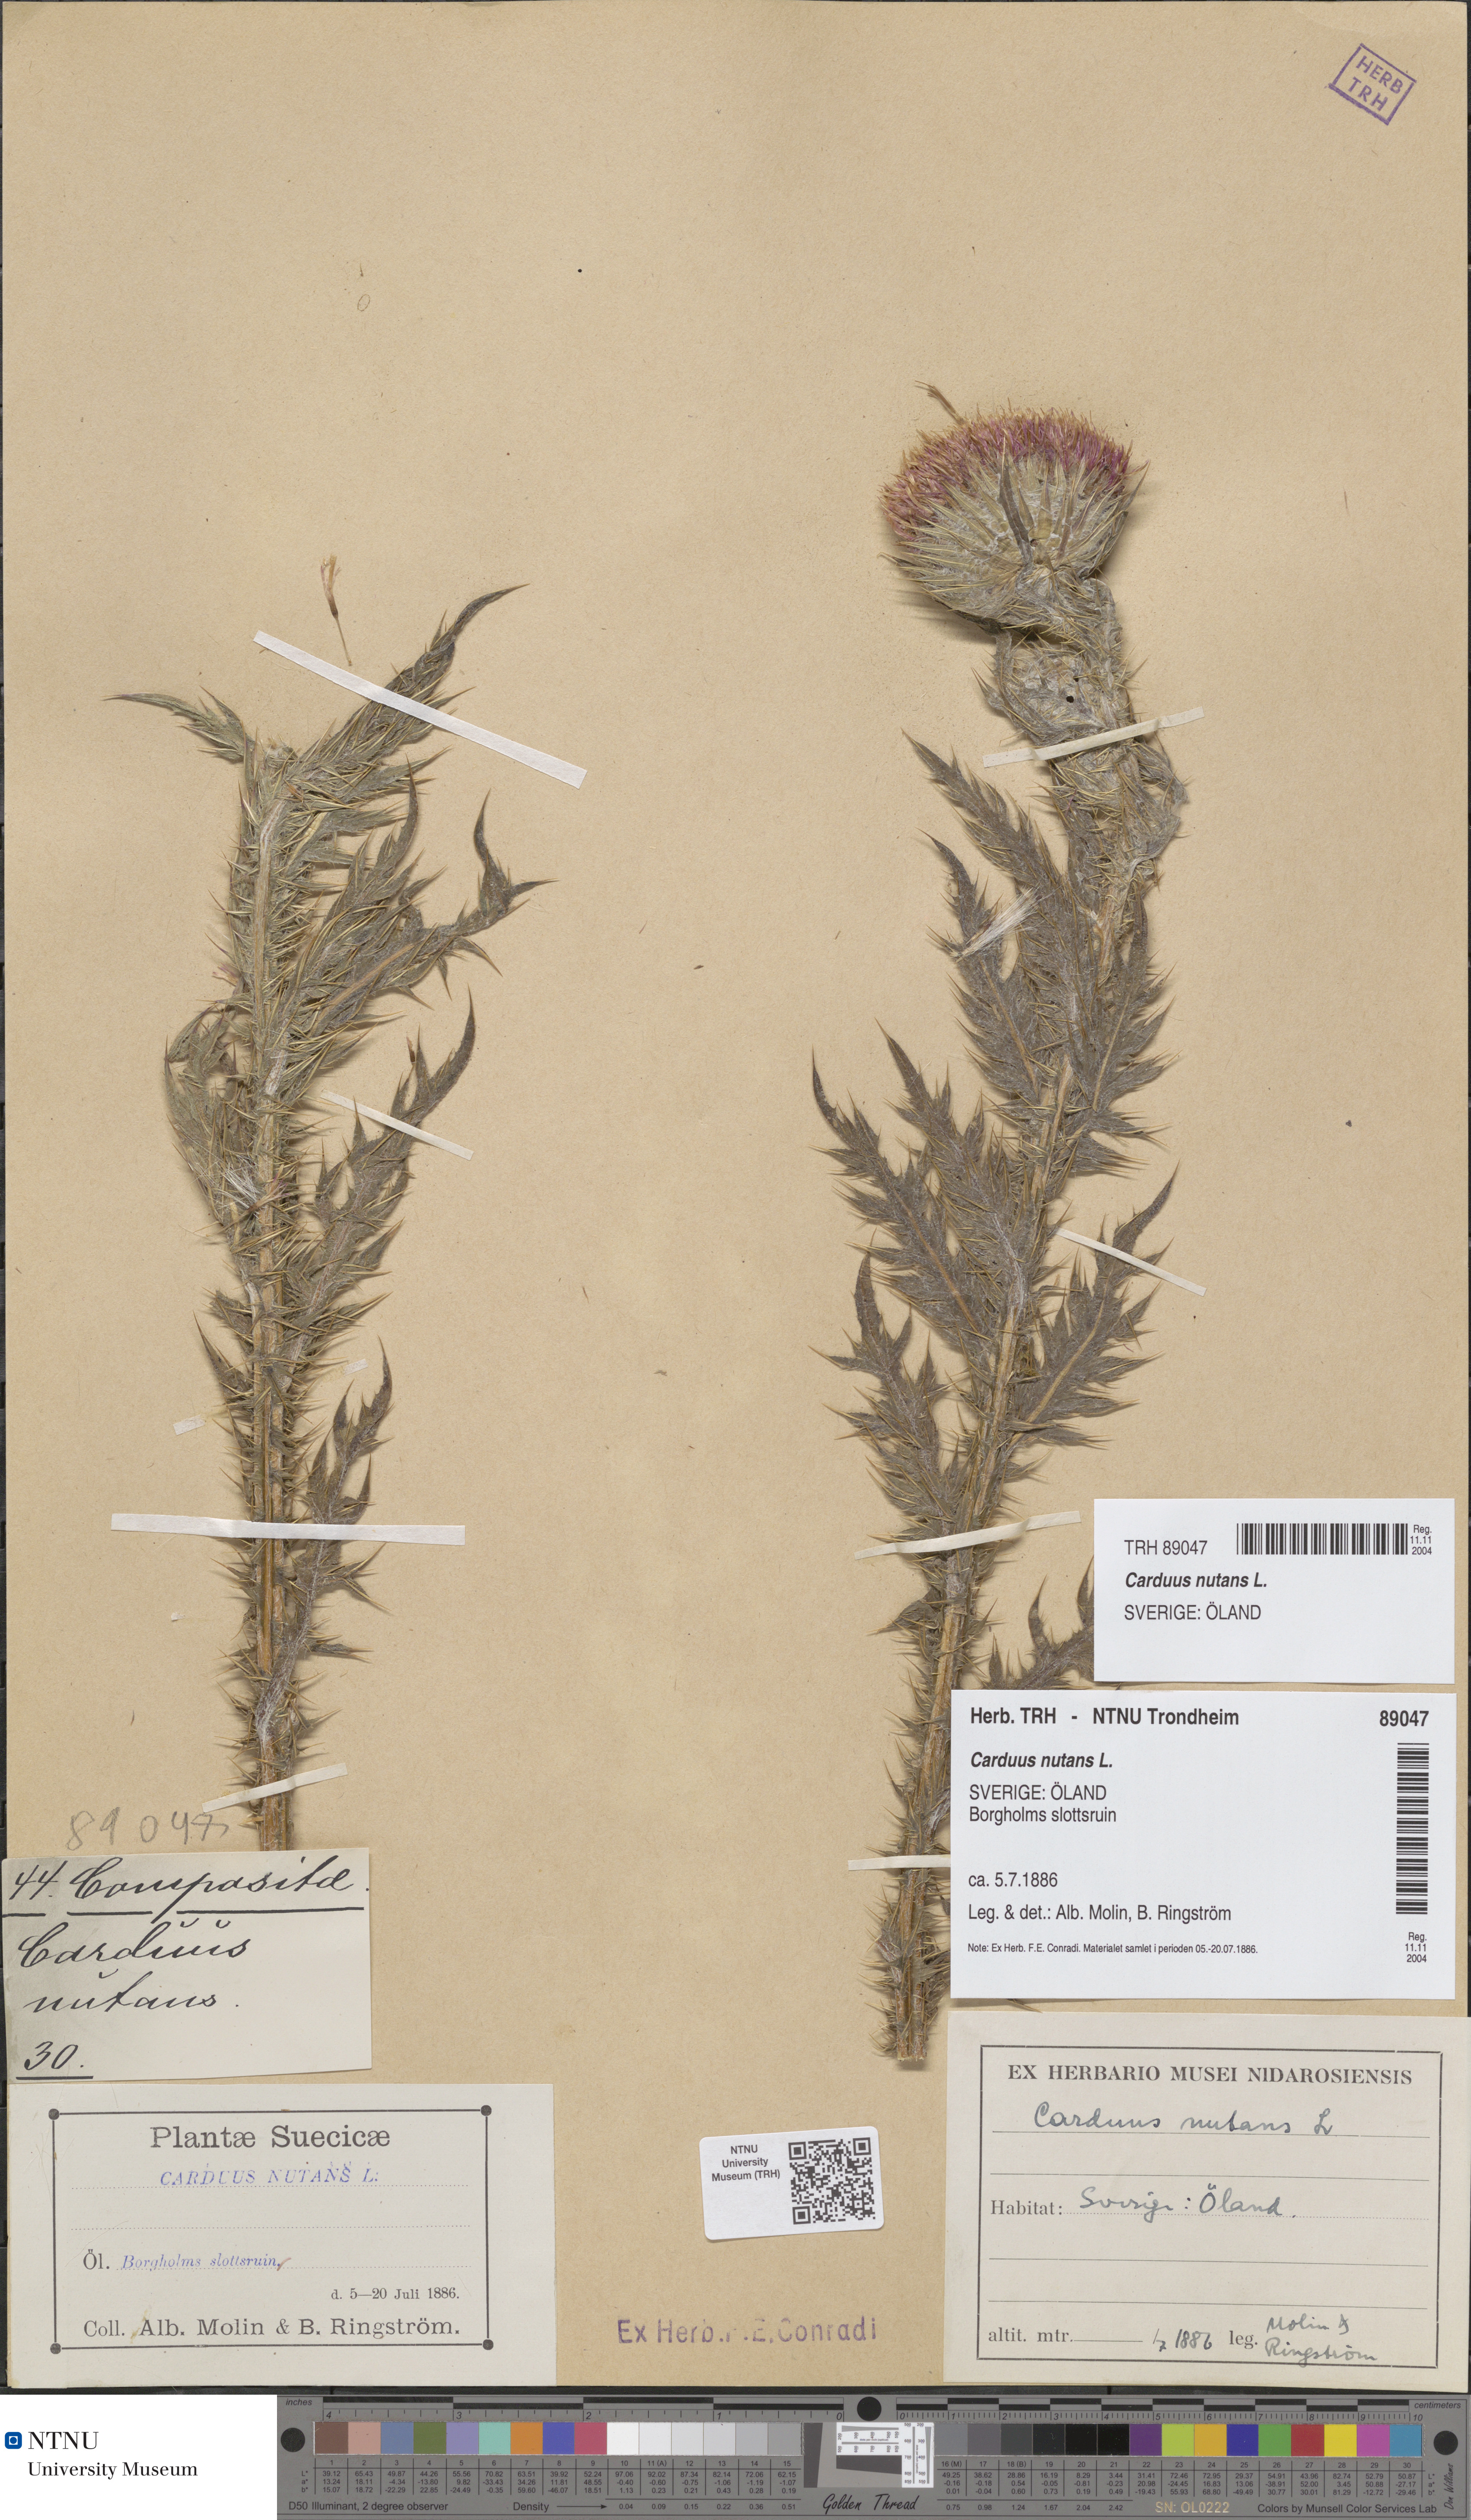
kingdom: Plantae
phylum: Tracheophyta
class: Magnoliopsida
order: Asterales
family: Asteraceae
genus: Carduus
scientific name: Carduus nutans
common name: Musk thistle
